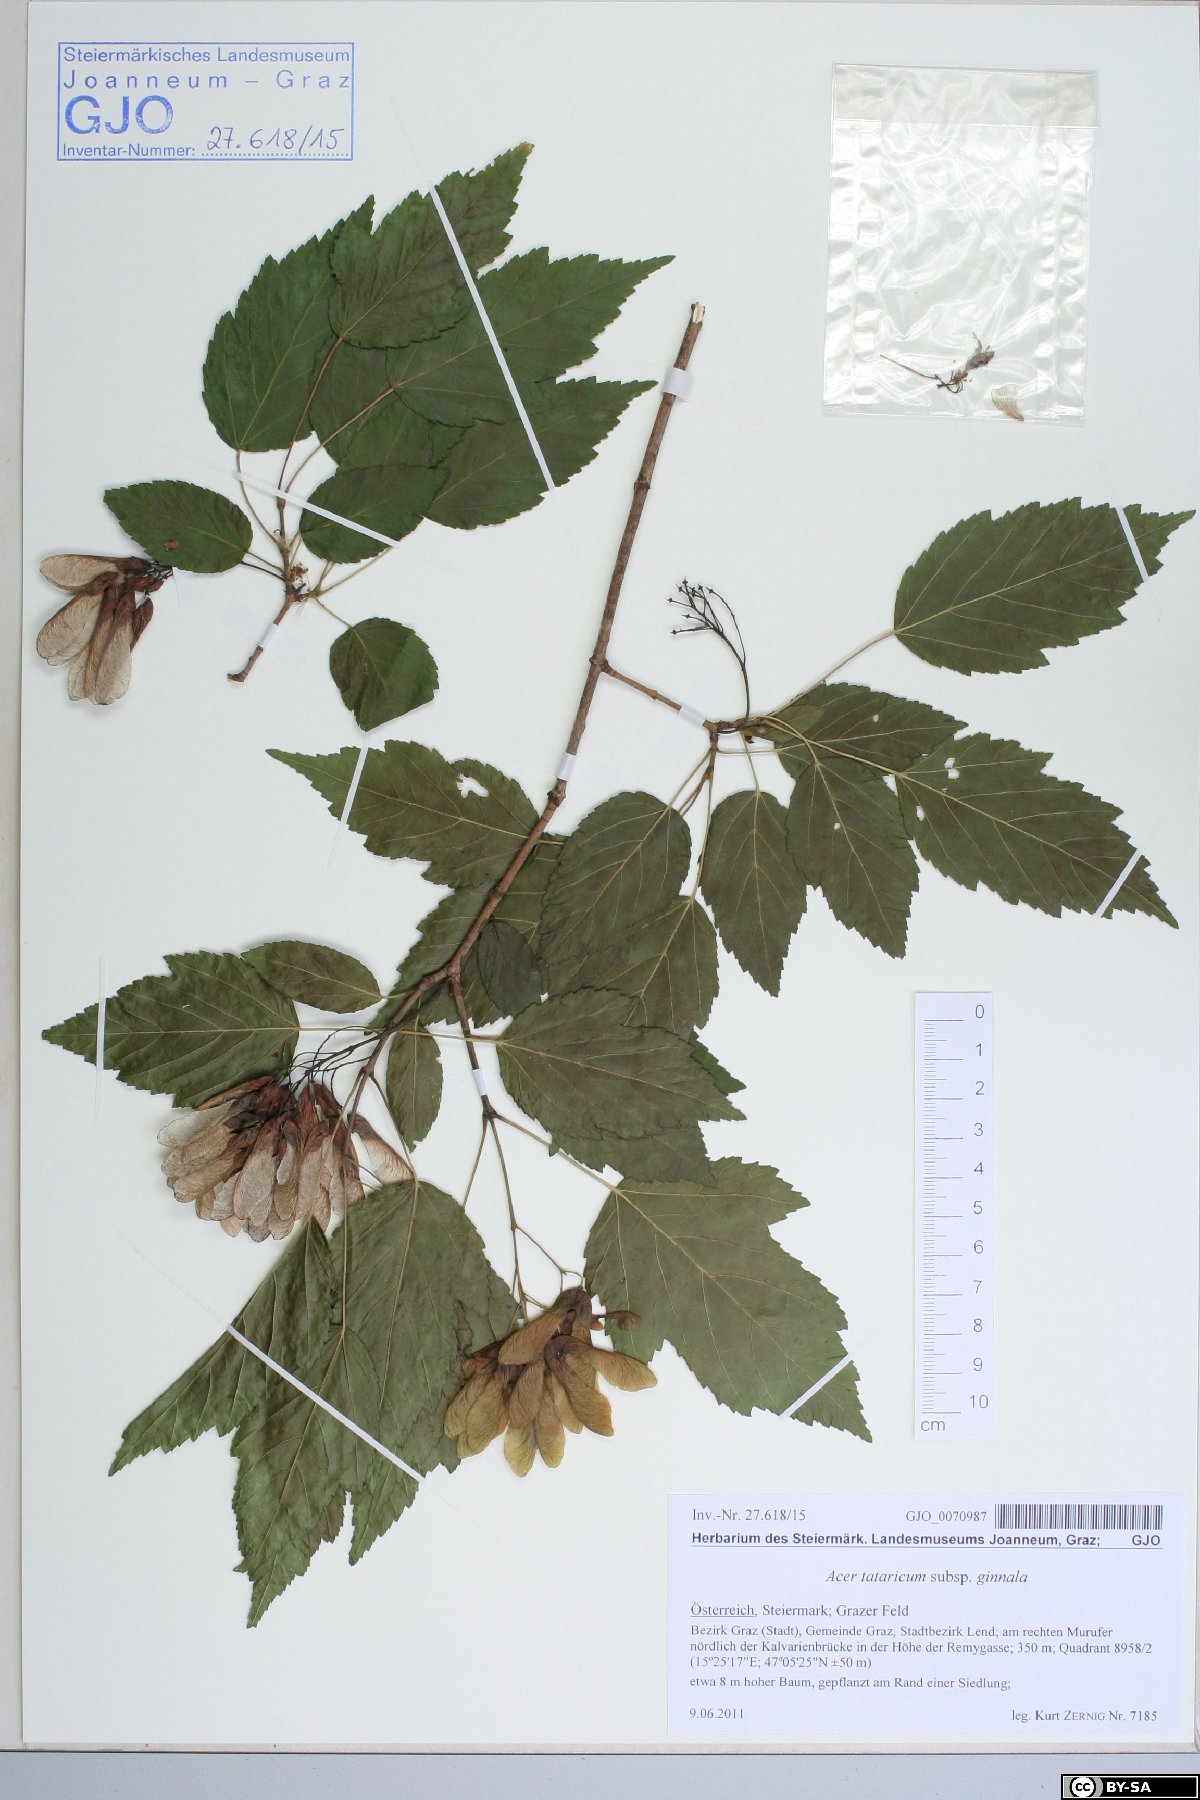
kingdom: Plantae
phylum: Tracheophyta
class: Magnoliopsida
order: Sapindales
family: Sapindaceae
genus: Acer
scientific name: Acer tataricum
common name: Tartar maple
